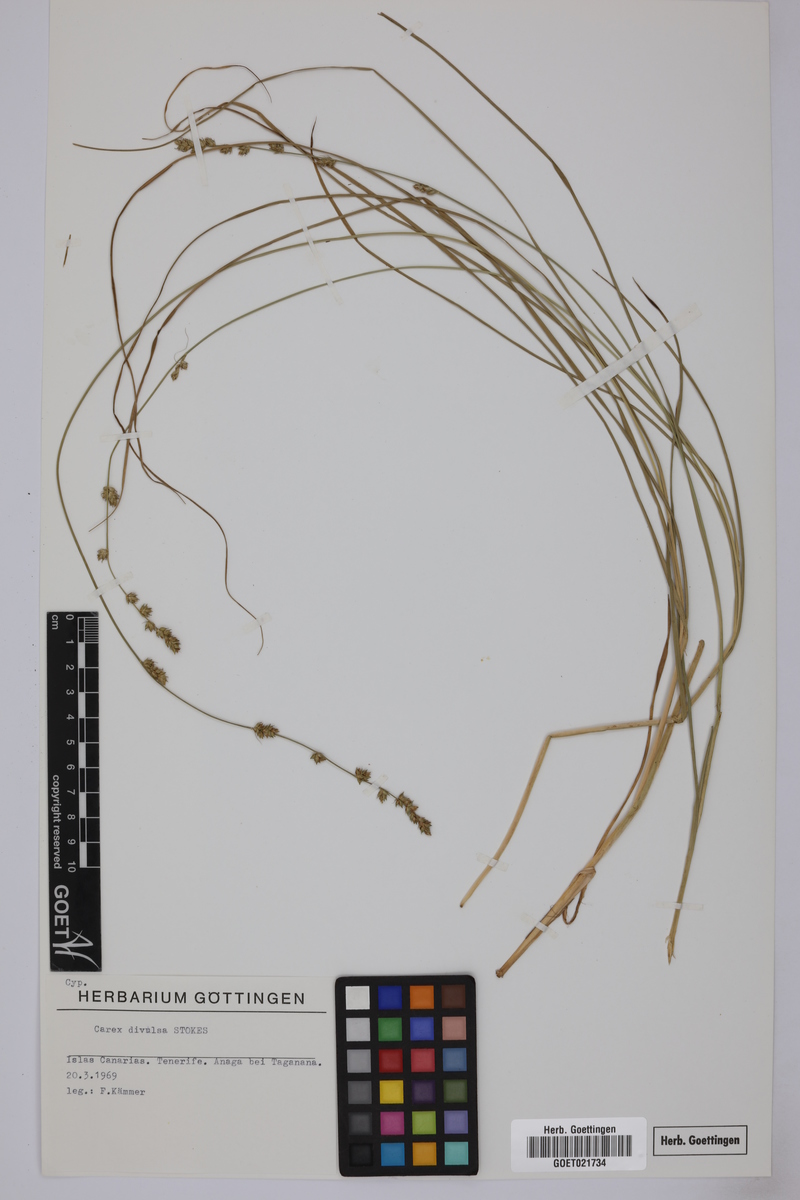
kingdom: Plantae
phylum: Tracheophyta
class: Liliopsida
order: Poales
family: Cyperaceae
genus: Carex
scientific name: Carex divulsa
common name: Grassland sedge
